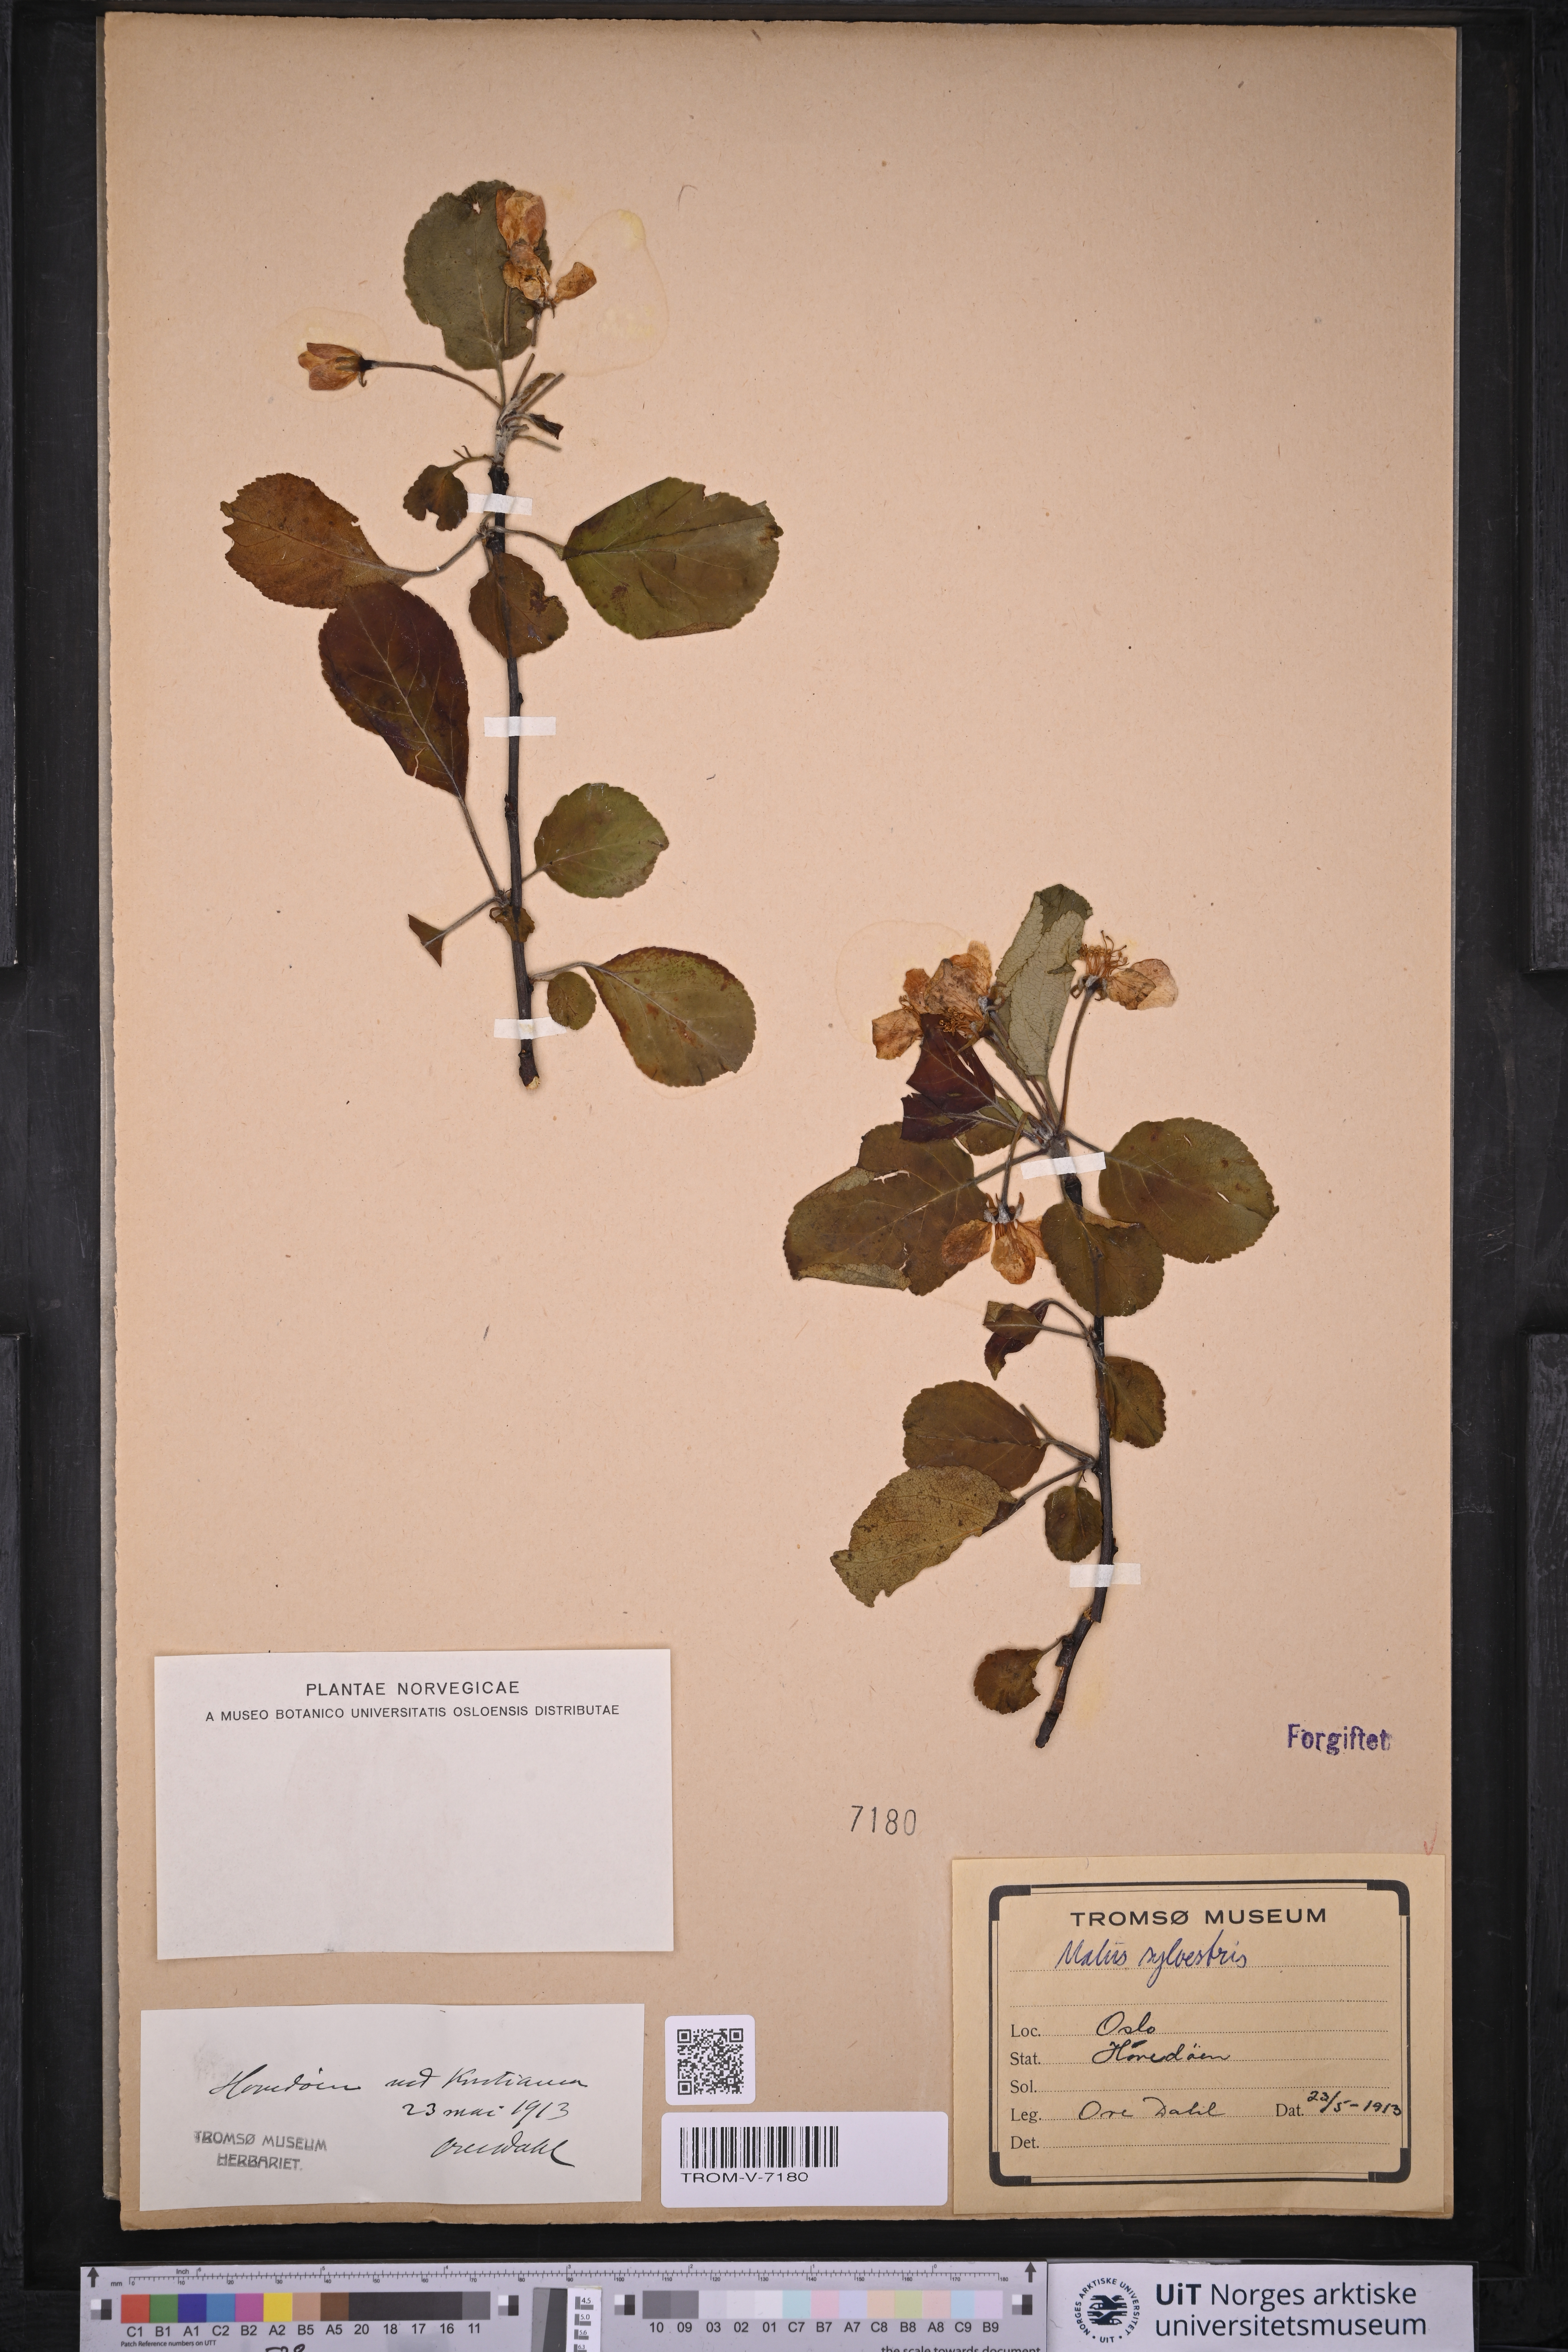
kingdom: Plantae
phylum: Tracheophyta
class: Magnoliopsida
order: Rosales
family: Rosaceae
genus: Malus
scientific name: Malus sylvestris
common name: Crab apple
